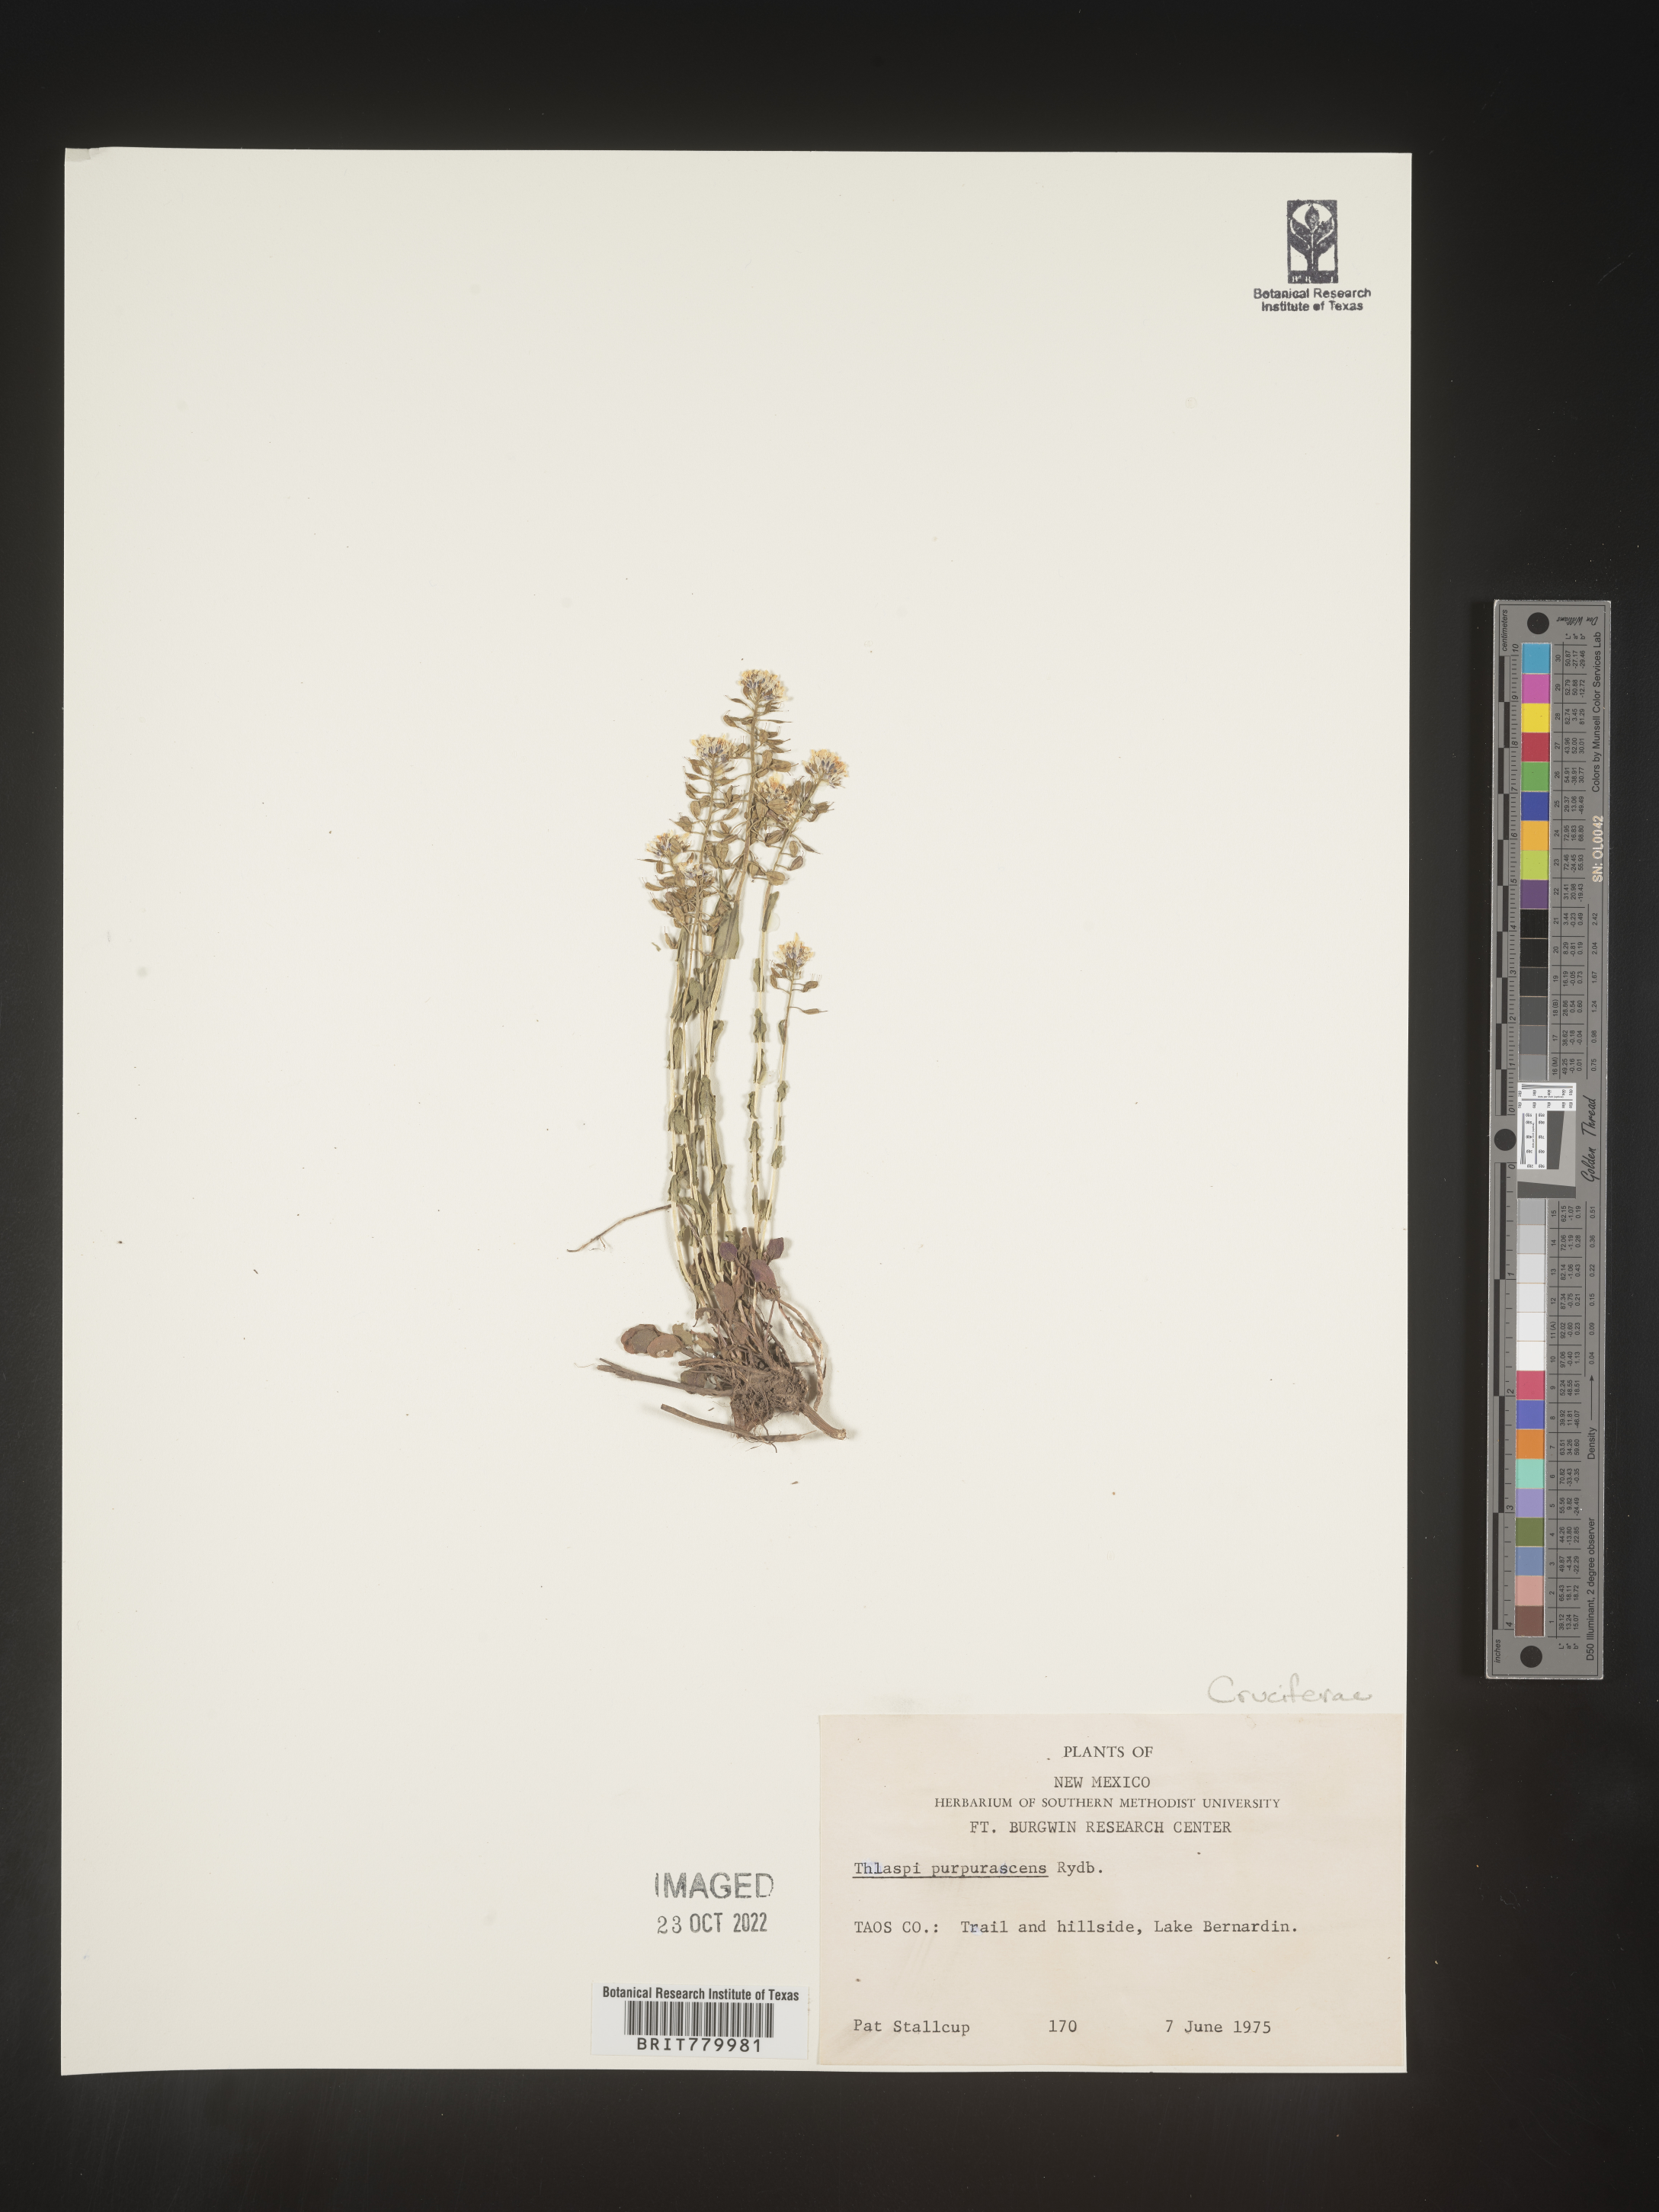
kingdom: Plantae
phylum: Tracheophyta
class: Magnoliopsida
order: Brassicales
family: Brassicaceae
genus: Thlaspi
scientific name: Thlaspi
